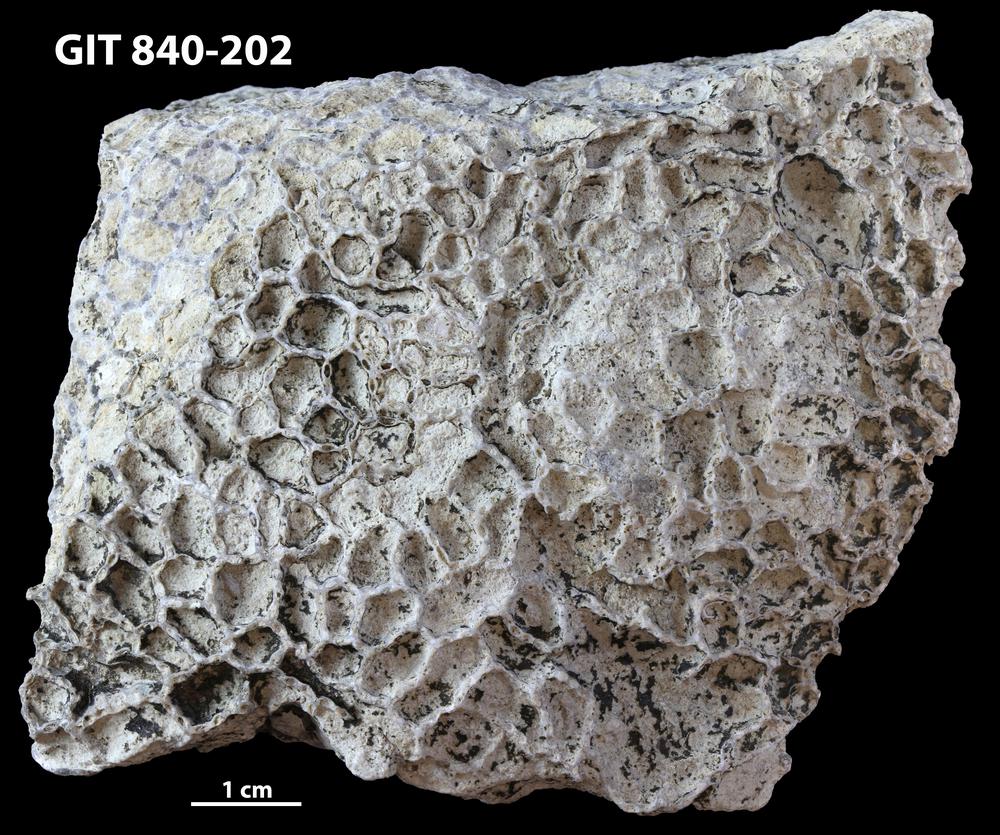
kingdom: Animalia
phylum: Cnidaria
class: Anthozoa
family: Cateniporidae
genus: Catenipora
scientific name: Catenipora
